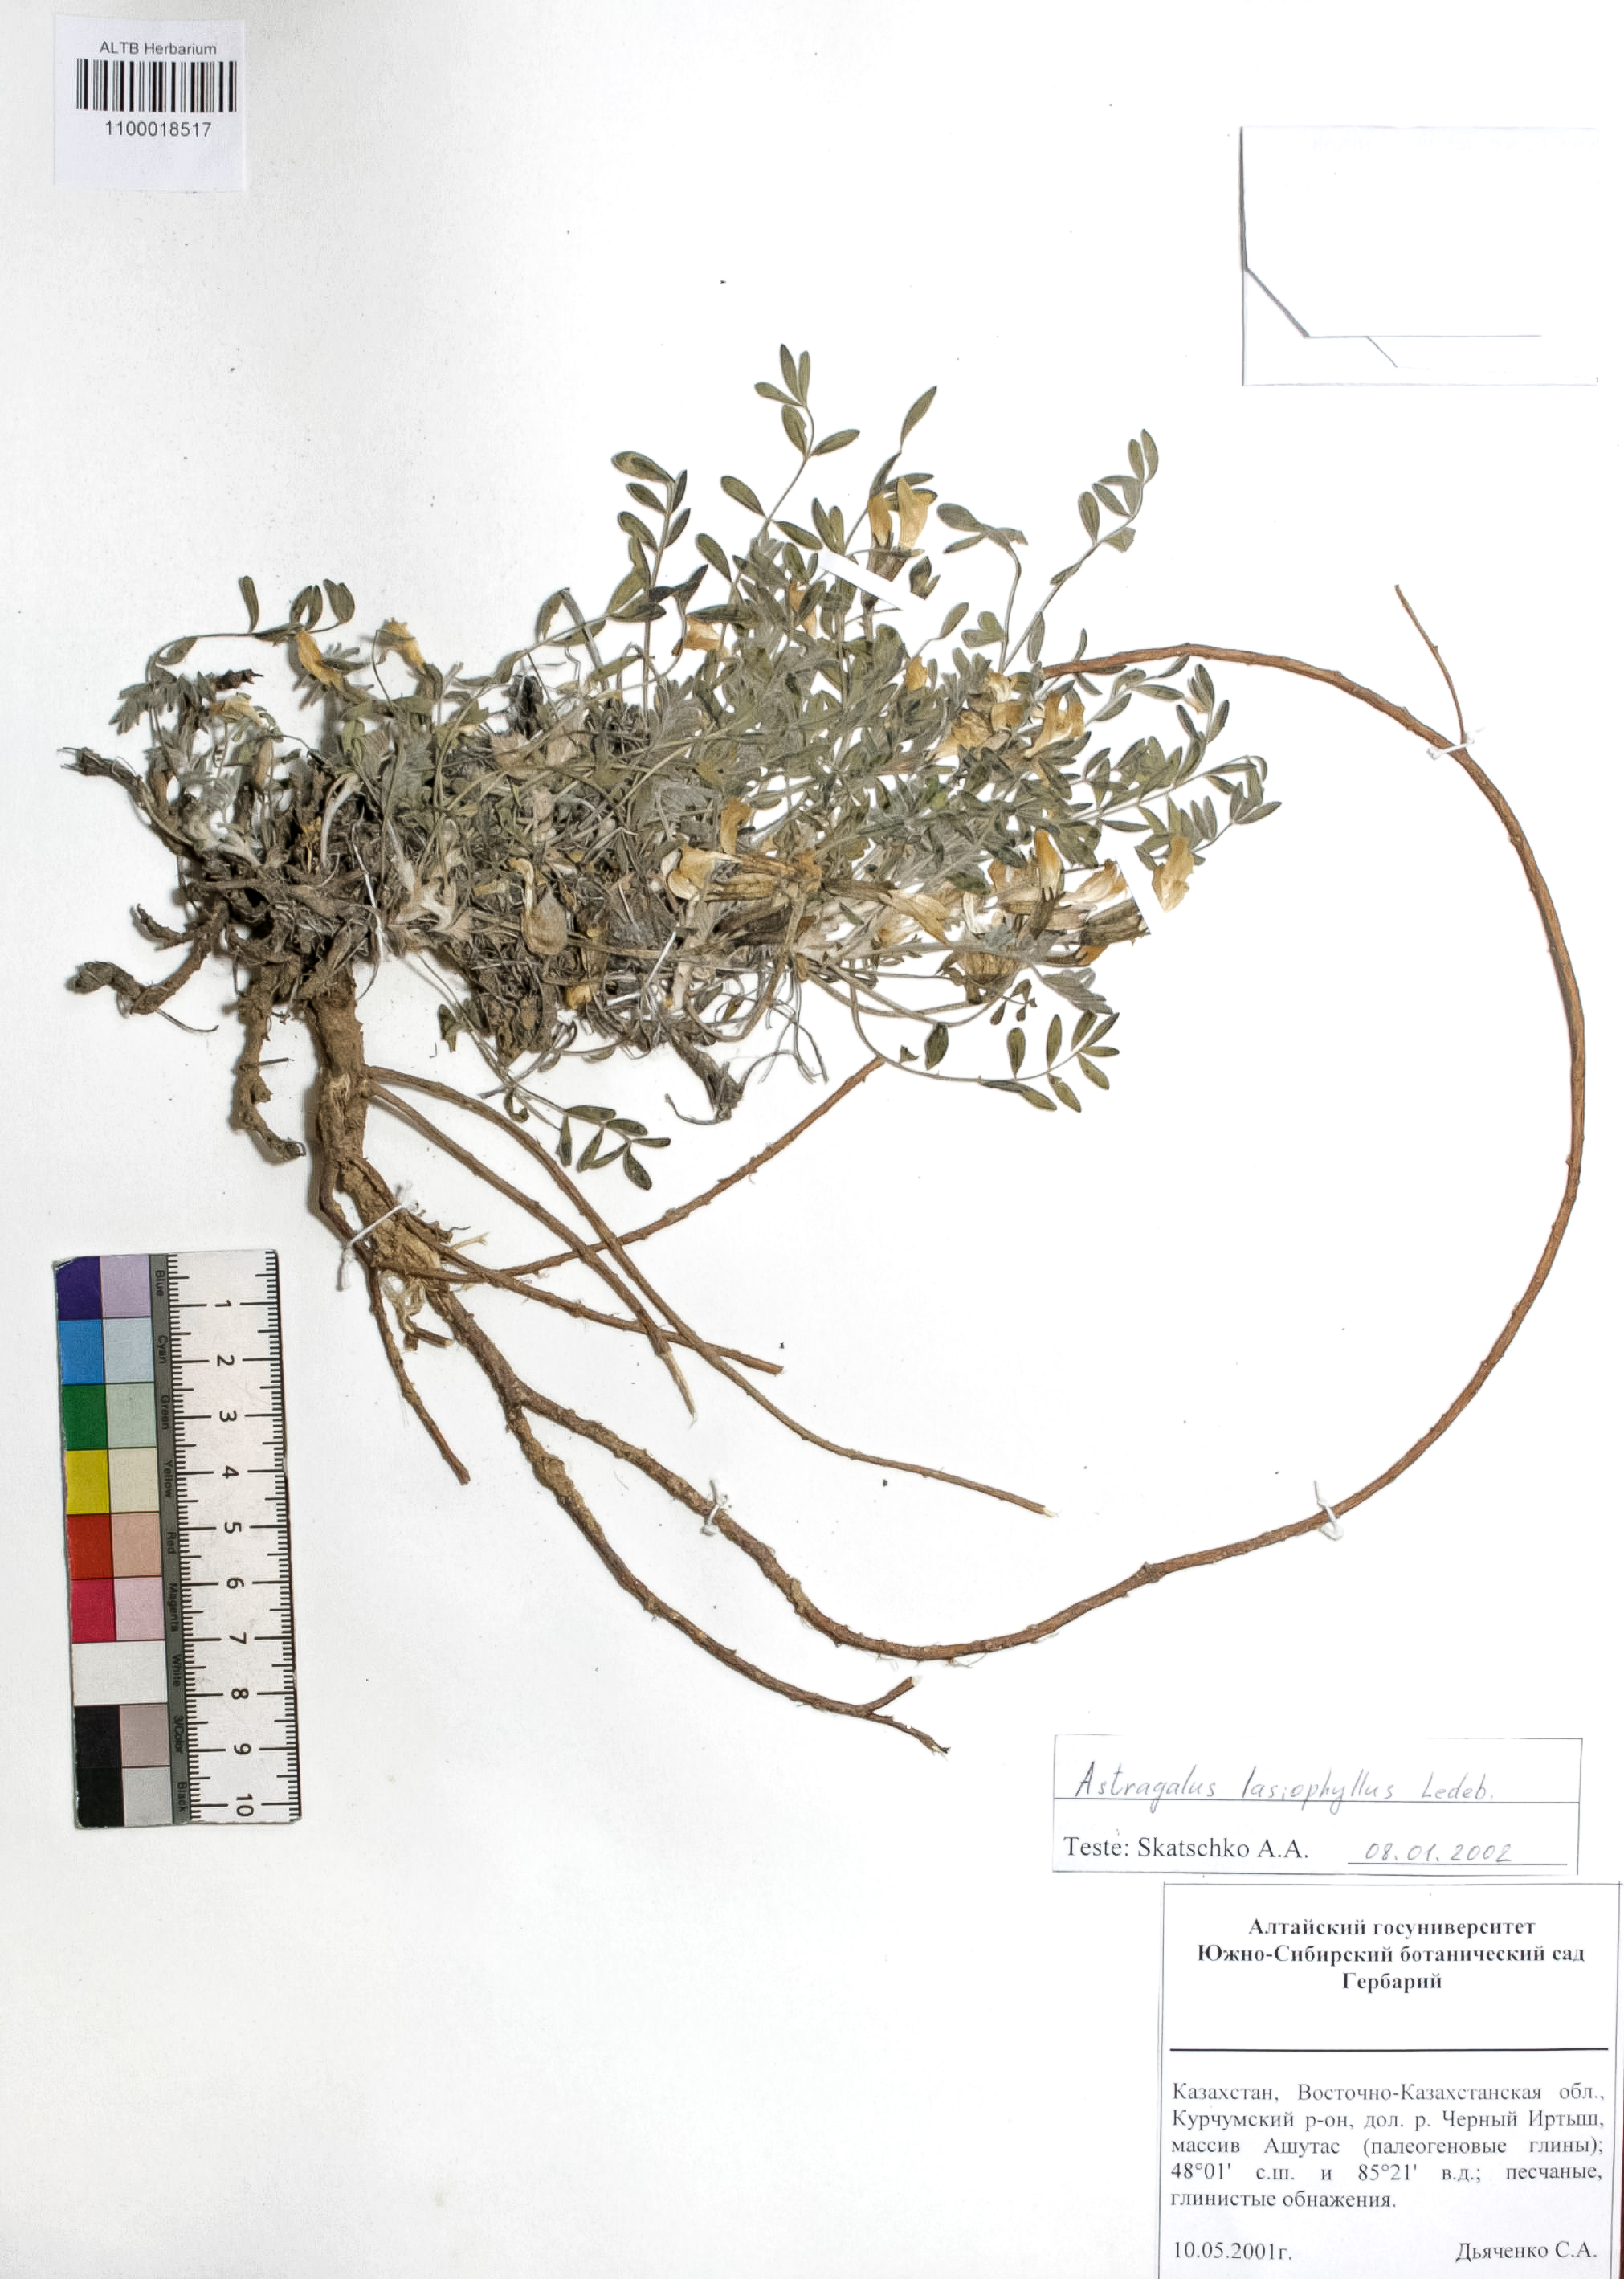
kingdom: Plantae
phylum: Tracheophyta
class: Magnoliopsida
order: Fabales
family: Fabaceae
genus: Astragalus
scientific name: Astragalus pallasii
